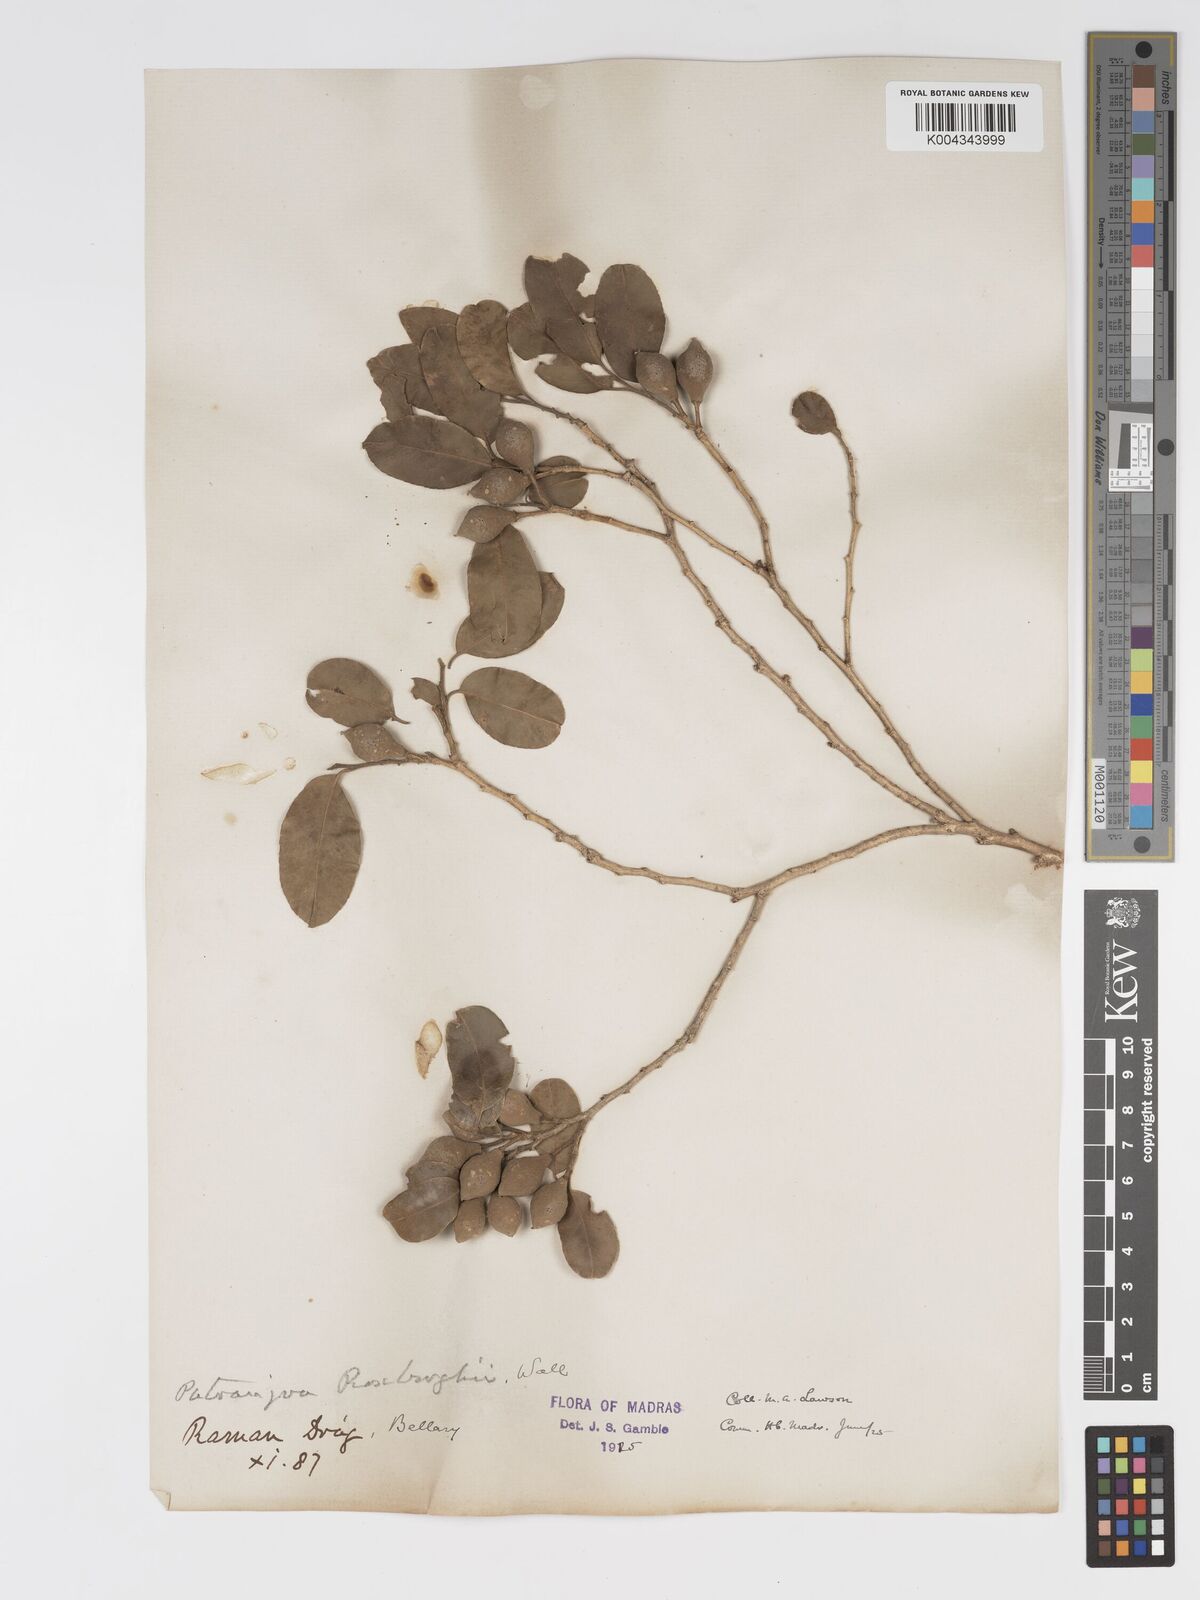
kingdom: Plantae
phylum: Tracheophyta
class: Magnoliopsida
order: Malpighiales
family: Putranjivaceae
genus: Putranjiva
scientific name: Putranjiva roxburghii
